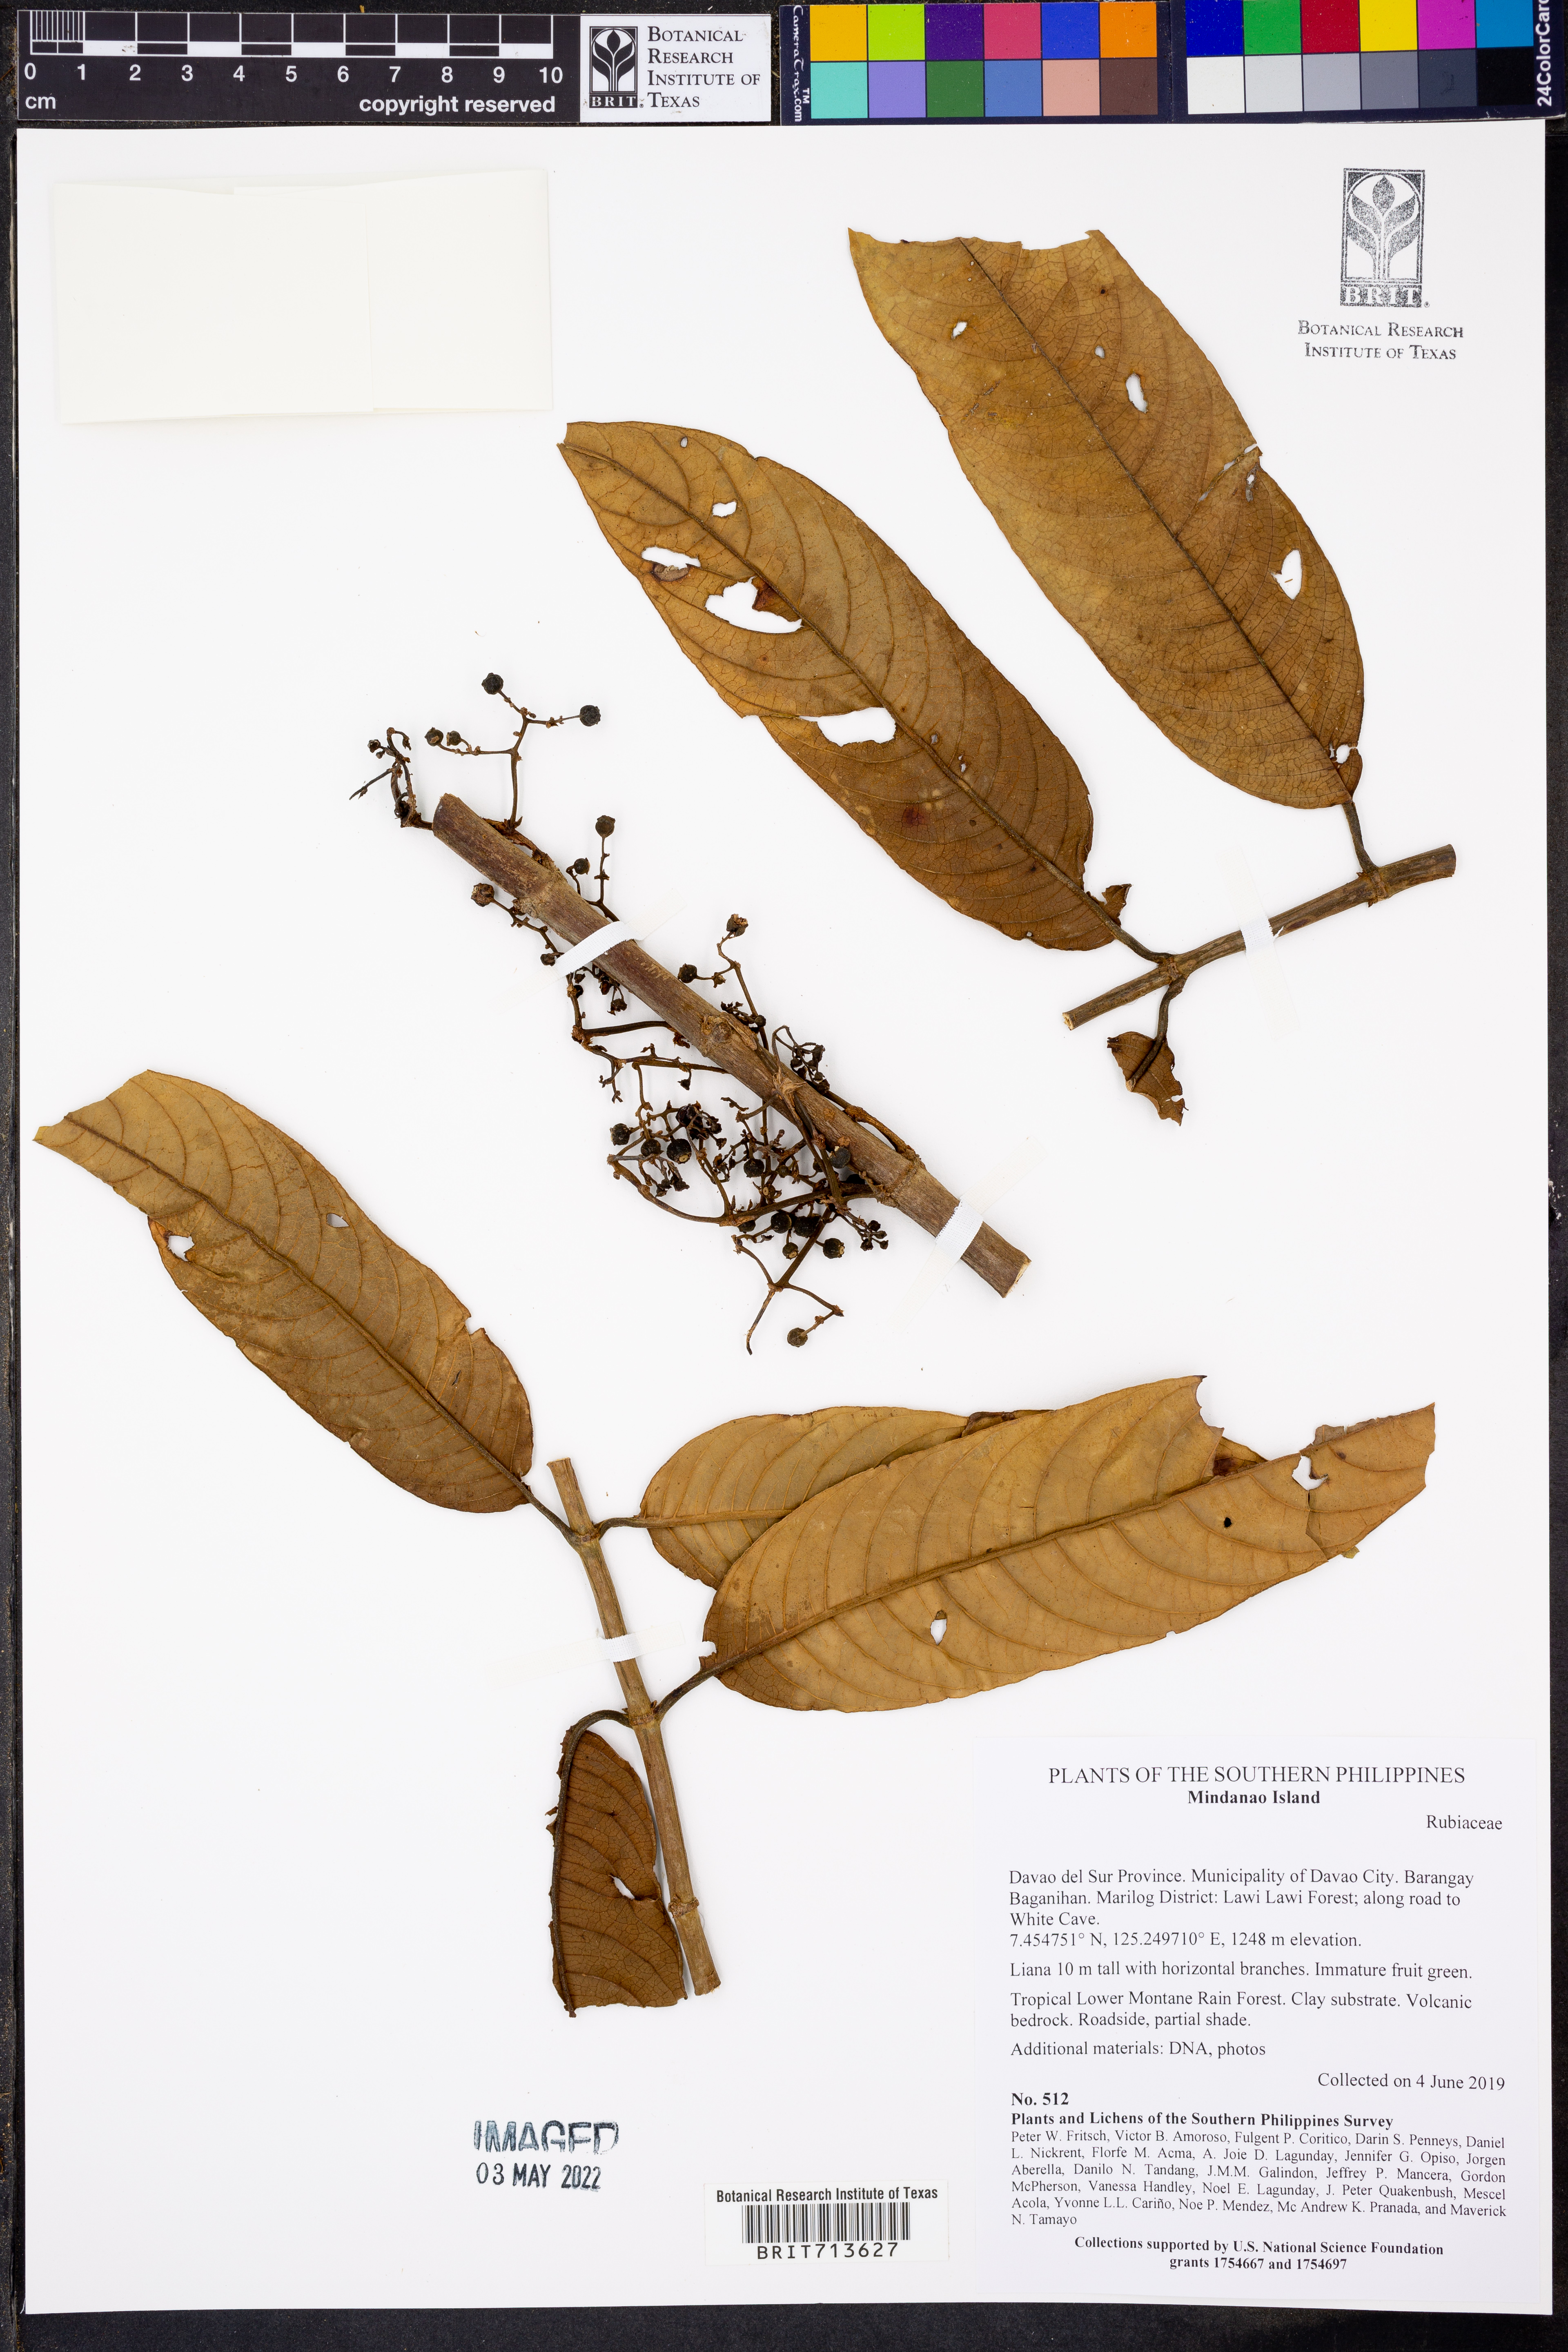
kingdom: Plantae
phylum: Tracheophyta
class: Magnoliopsida
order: Gentianales
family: Rubiaceae
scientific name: Rubiaceae
